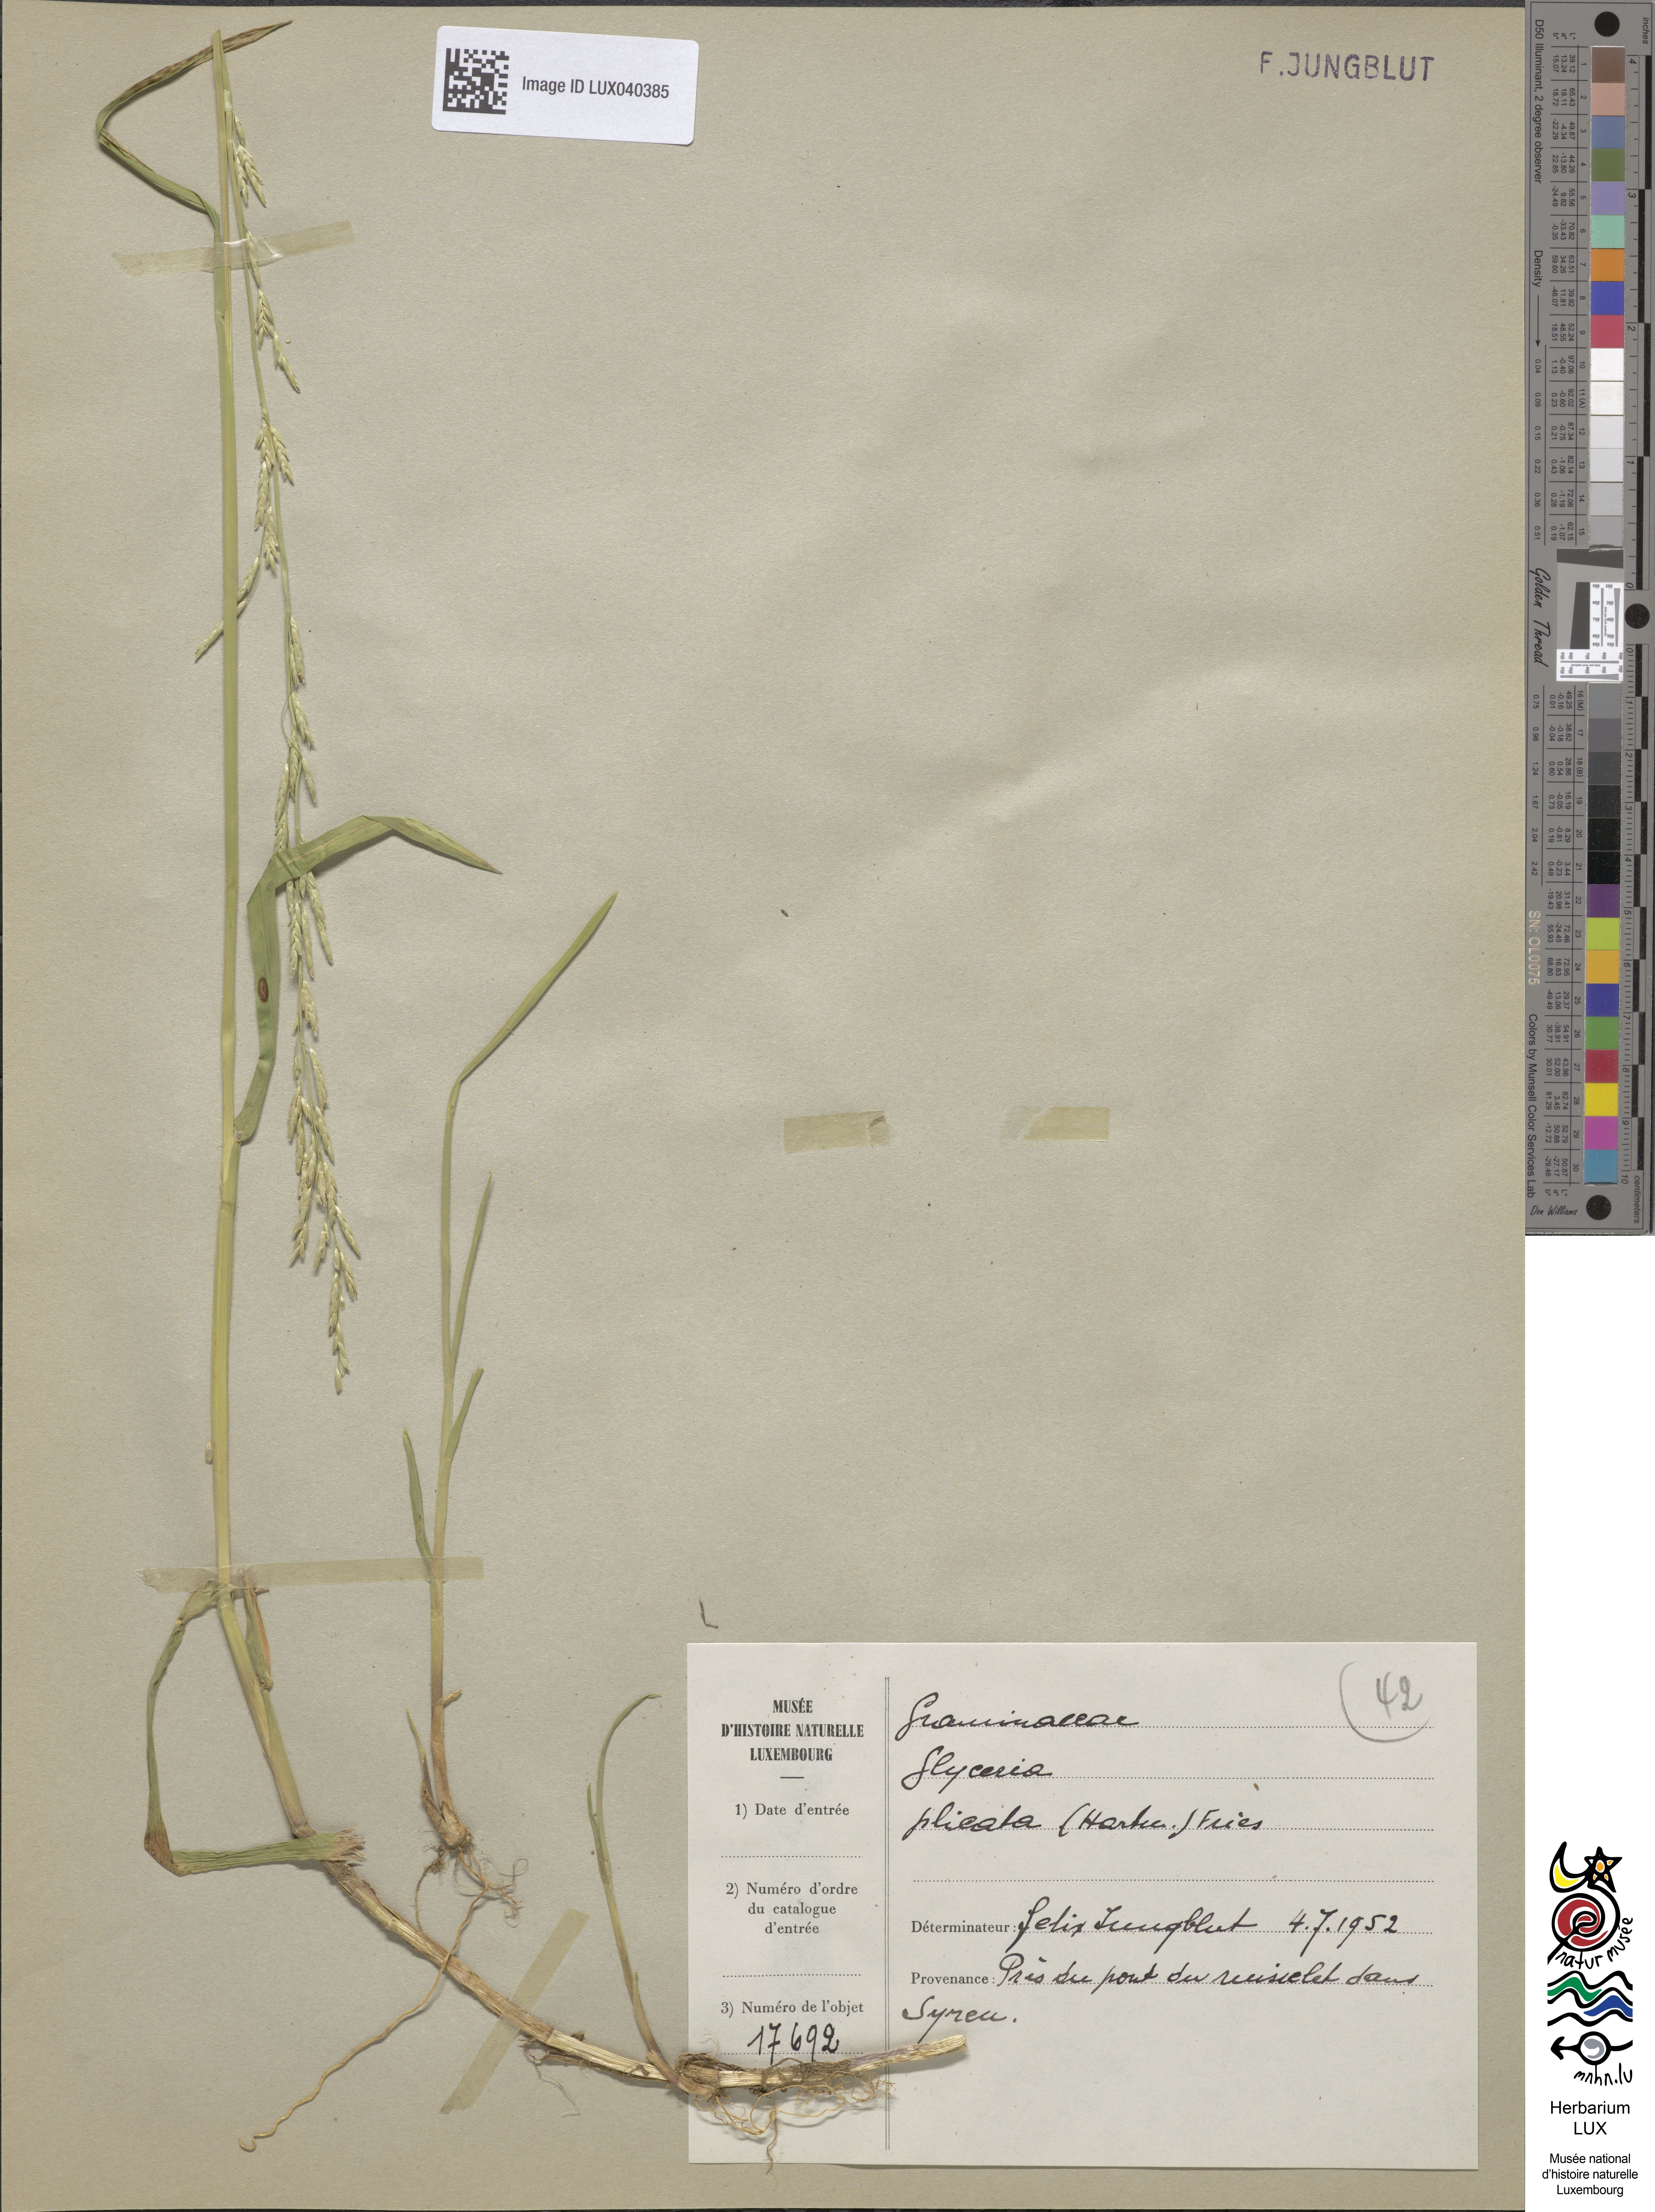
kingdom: Plantae
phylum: Tracheophyta
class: Liliopsida
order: Poales
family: Poaceae
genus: Glyceria
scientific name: Glyceria notata
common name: Plicate sweet-grass
